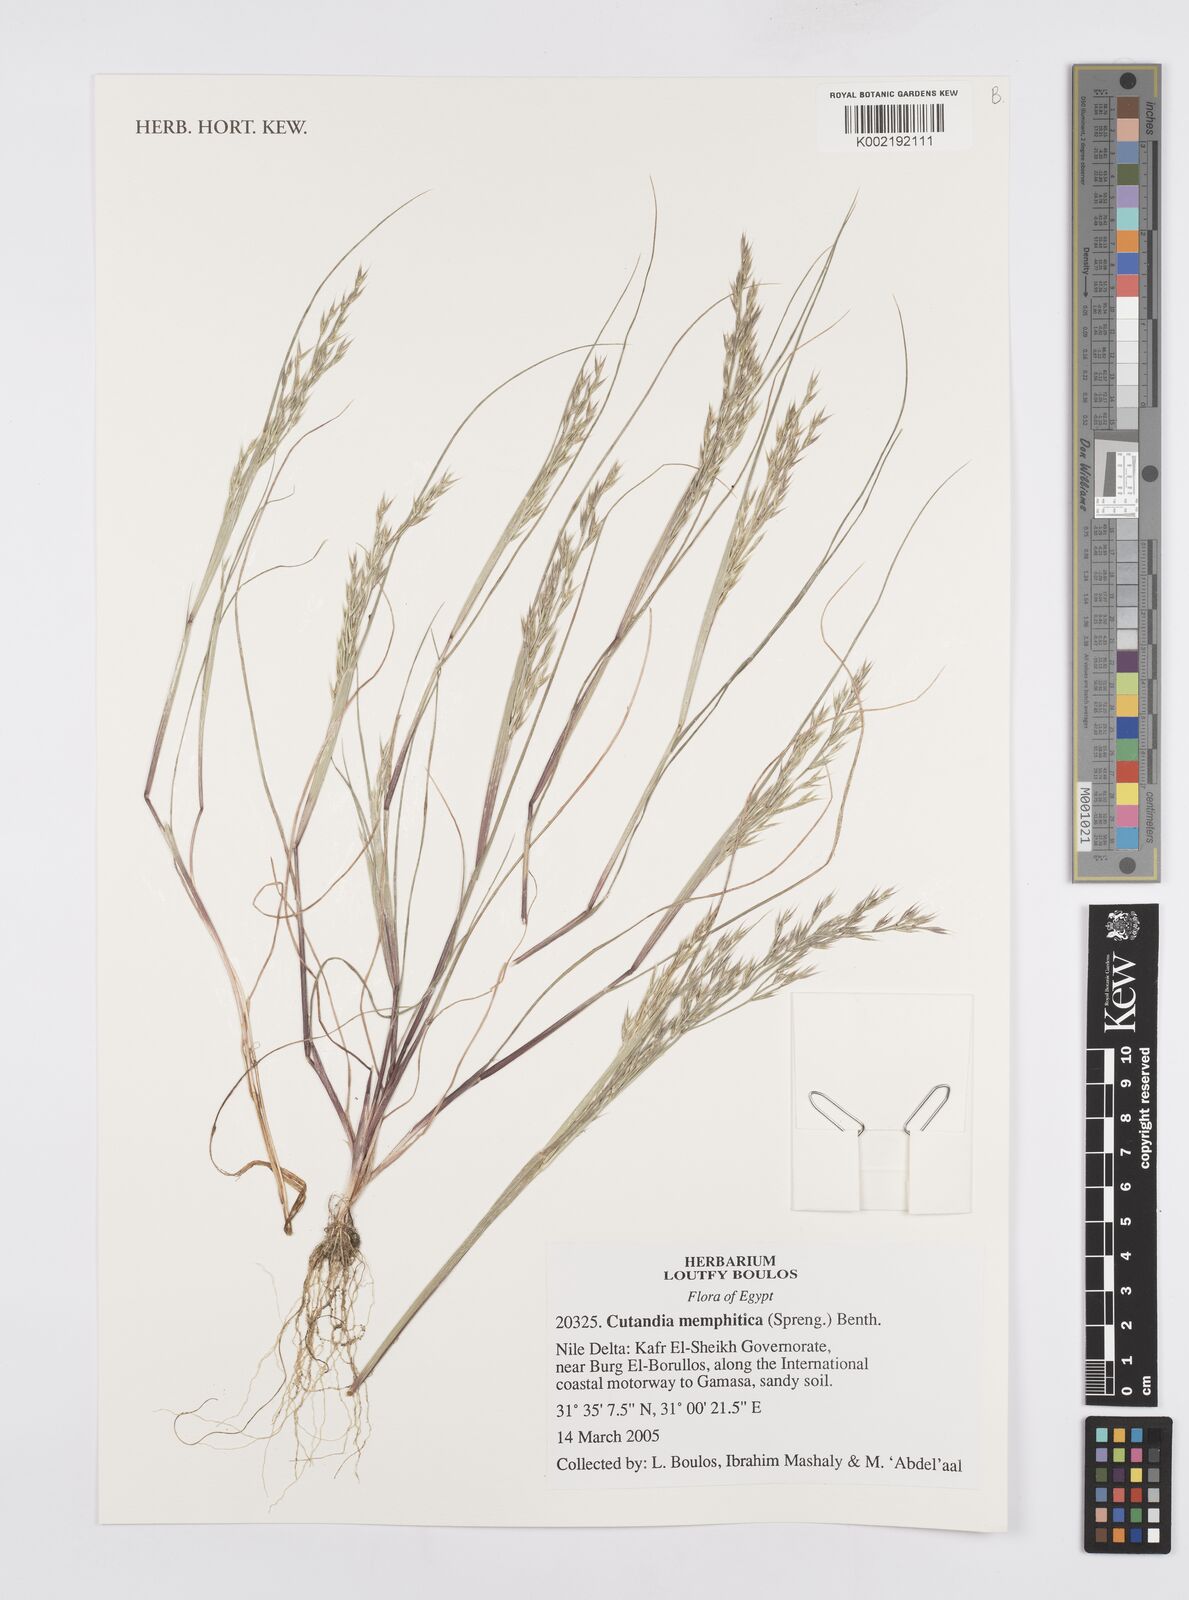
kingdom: Plantae
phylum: Tracheophyta
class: Liliopsida
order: Poales
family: Poaceae
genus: Cutandia
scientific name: Cutandia memphitica
